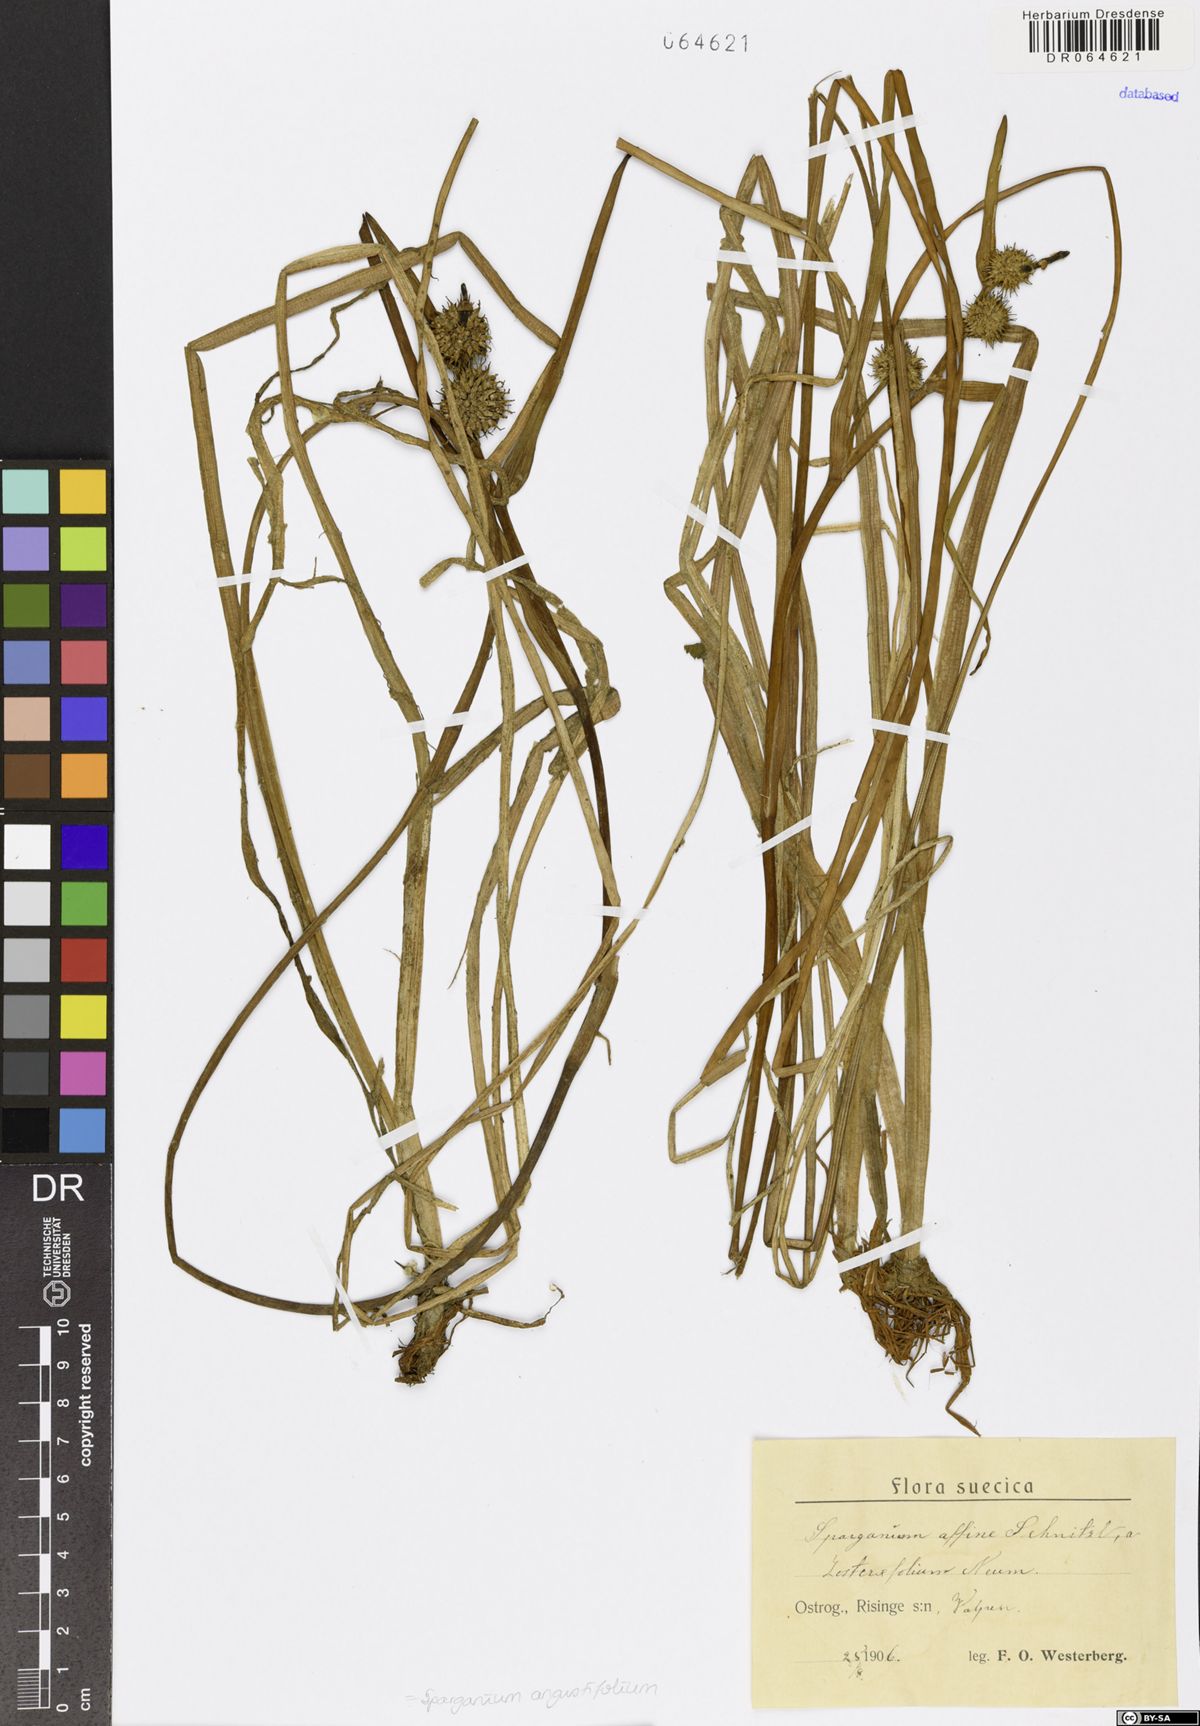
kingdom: Plantae
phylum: Tracheophyta
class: Liliopsida
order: Poales
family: Typhaceae
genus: Sparganium
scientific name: Sparganium angustifolium
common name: Floating bur-reed
